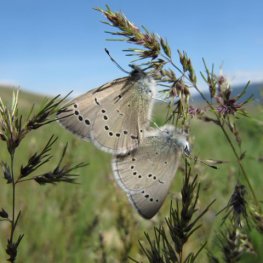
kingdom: Animalia
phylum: Arthropoda
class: Insecta
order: Lepidoptera
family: Lycaenidae
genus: Glaucopsyche
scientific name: Glaucopsyche lygdamus
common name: Silvery Blue
